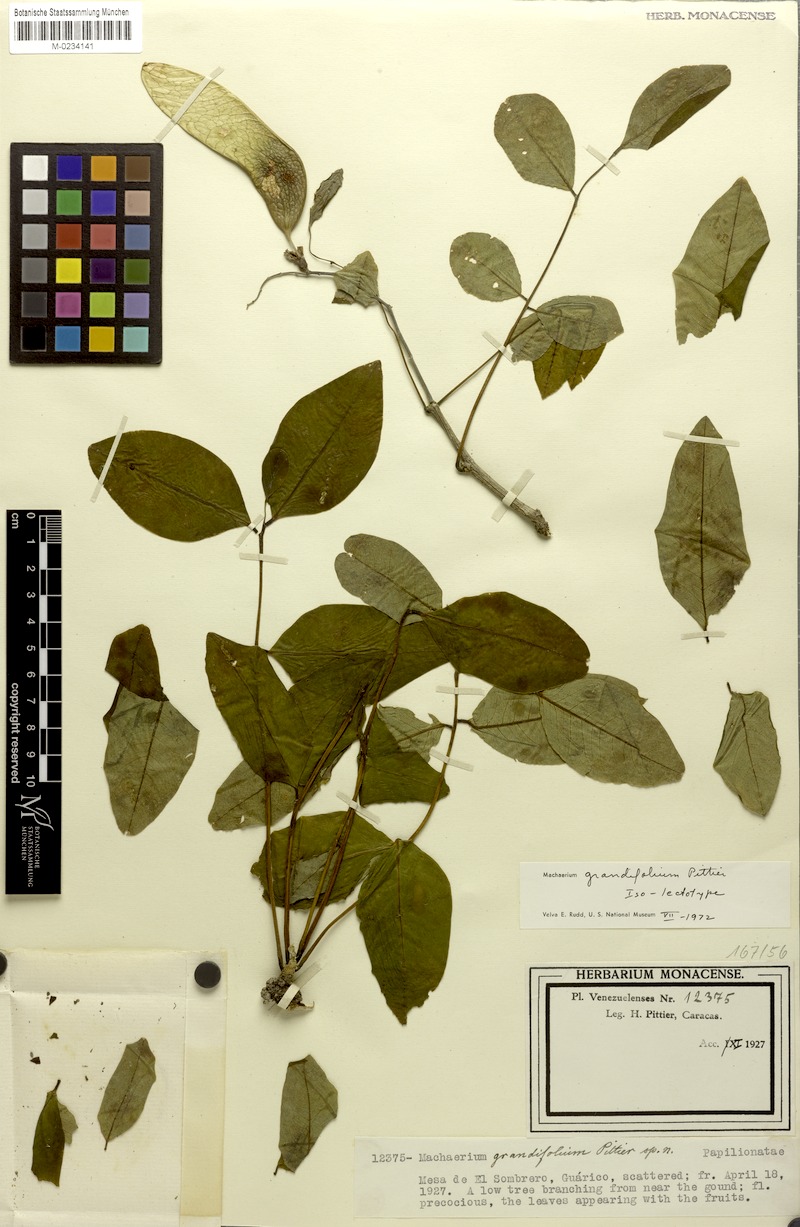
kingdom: Plantae
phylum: Tracheophyta
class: Magnoliopsida
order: Fabales
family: Fabaceae
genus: Machaerium
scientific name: Machaerium grandifolium
